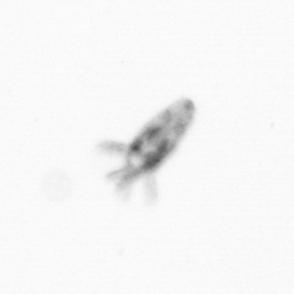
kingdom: Animalia
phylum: Arthropoda
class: Copepoda
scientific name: Copepoda
